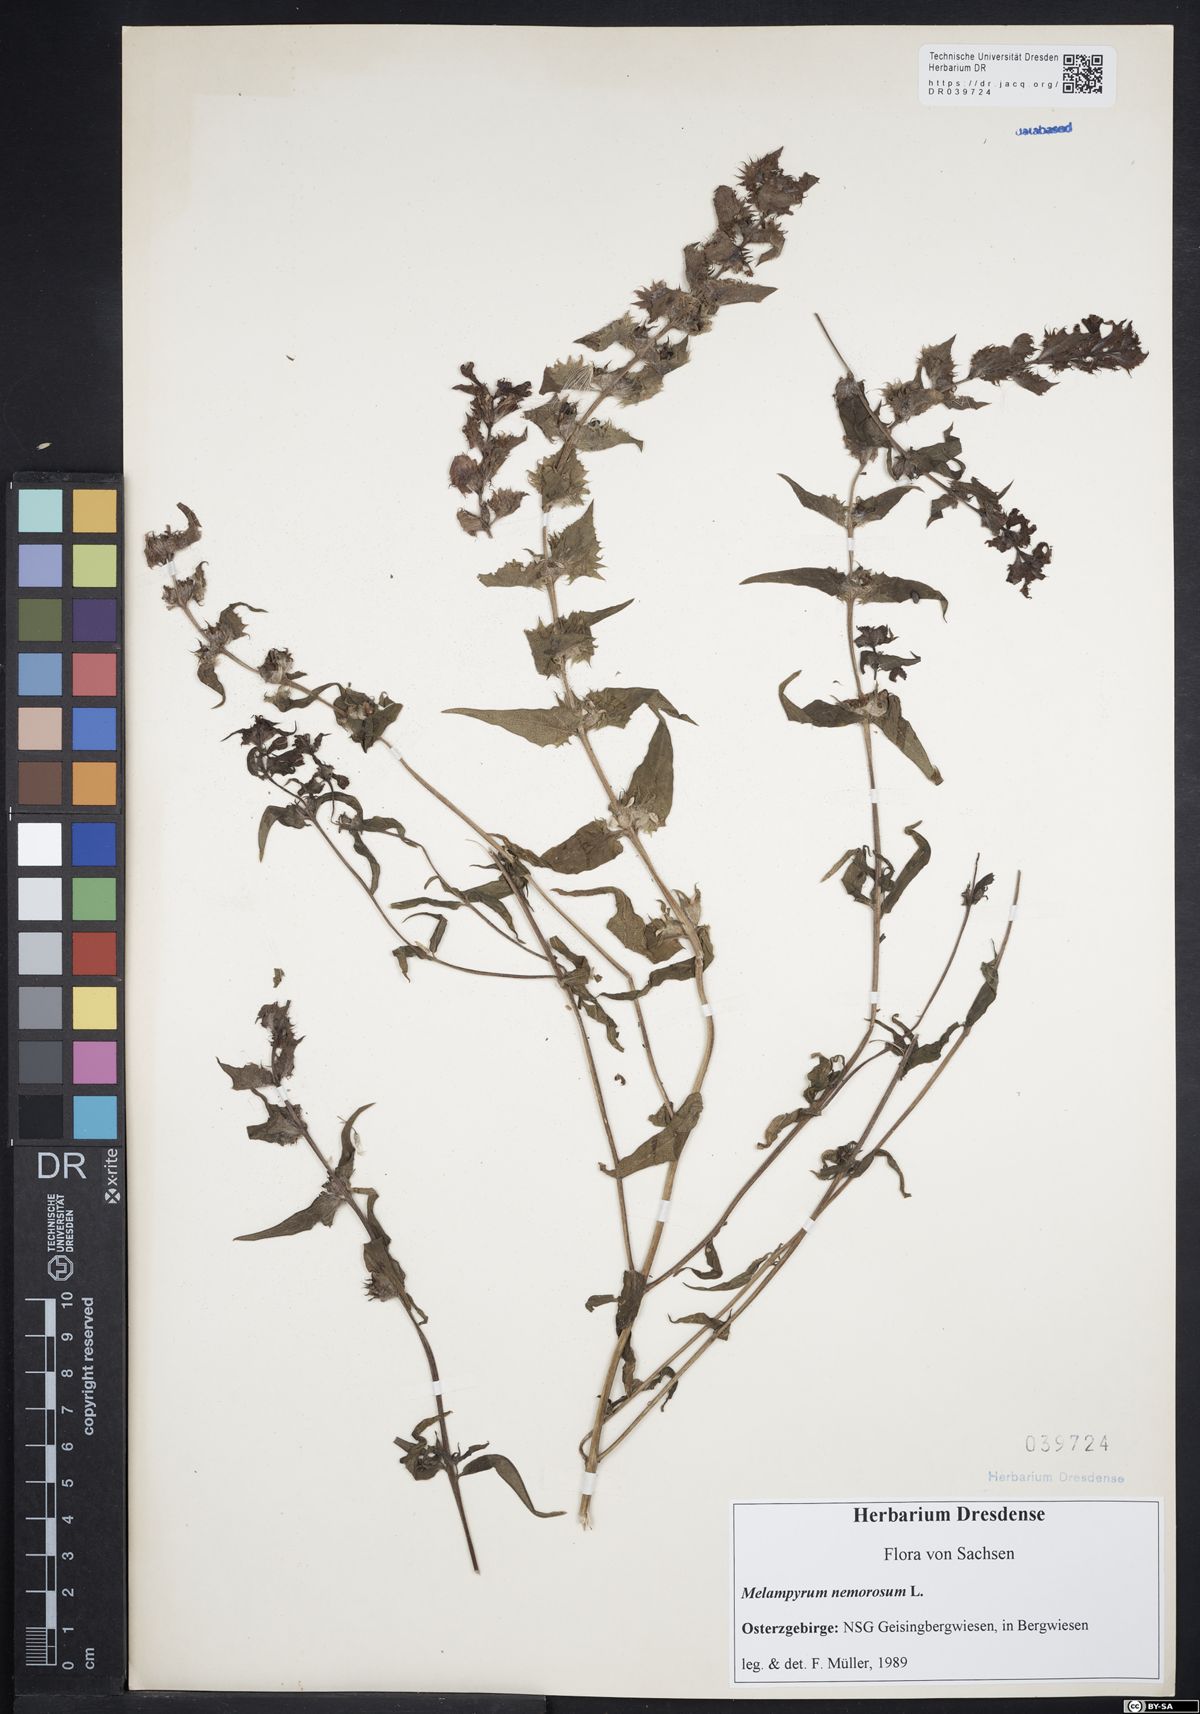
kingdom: Plantae
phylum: Tracheophyta
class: Magnoliopsida
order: Lamiales
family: Orobanchaceae
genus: Melampyrum
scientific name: Melampyrum nemorosum
